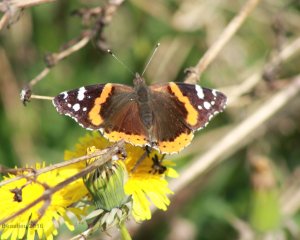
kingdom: Animalia
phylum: Arthropoda
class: Insecta
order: Lepidoptera
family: Nymphalidae
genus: Vanessa
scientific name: Vanessa atalanta
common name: Red Admiral
